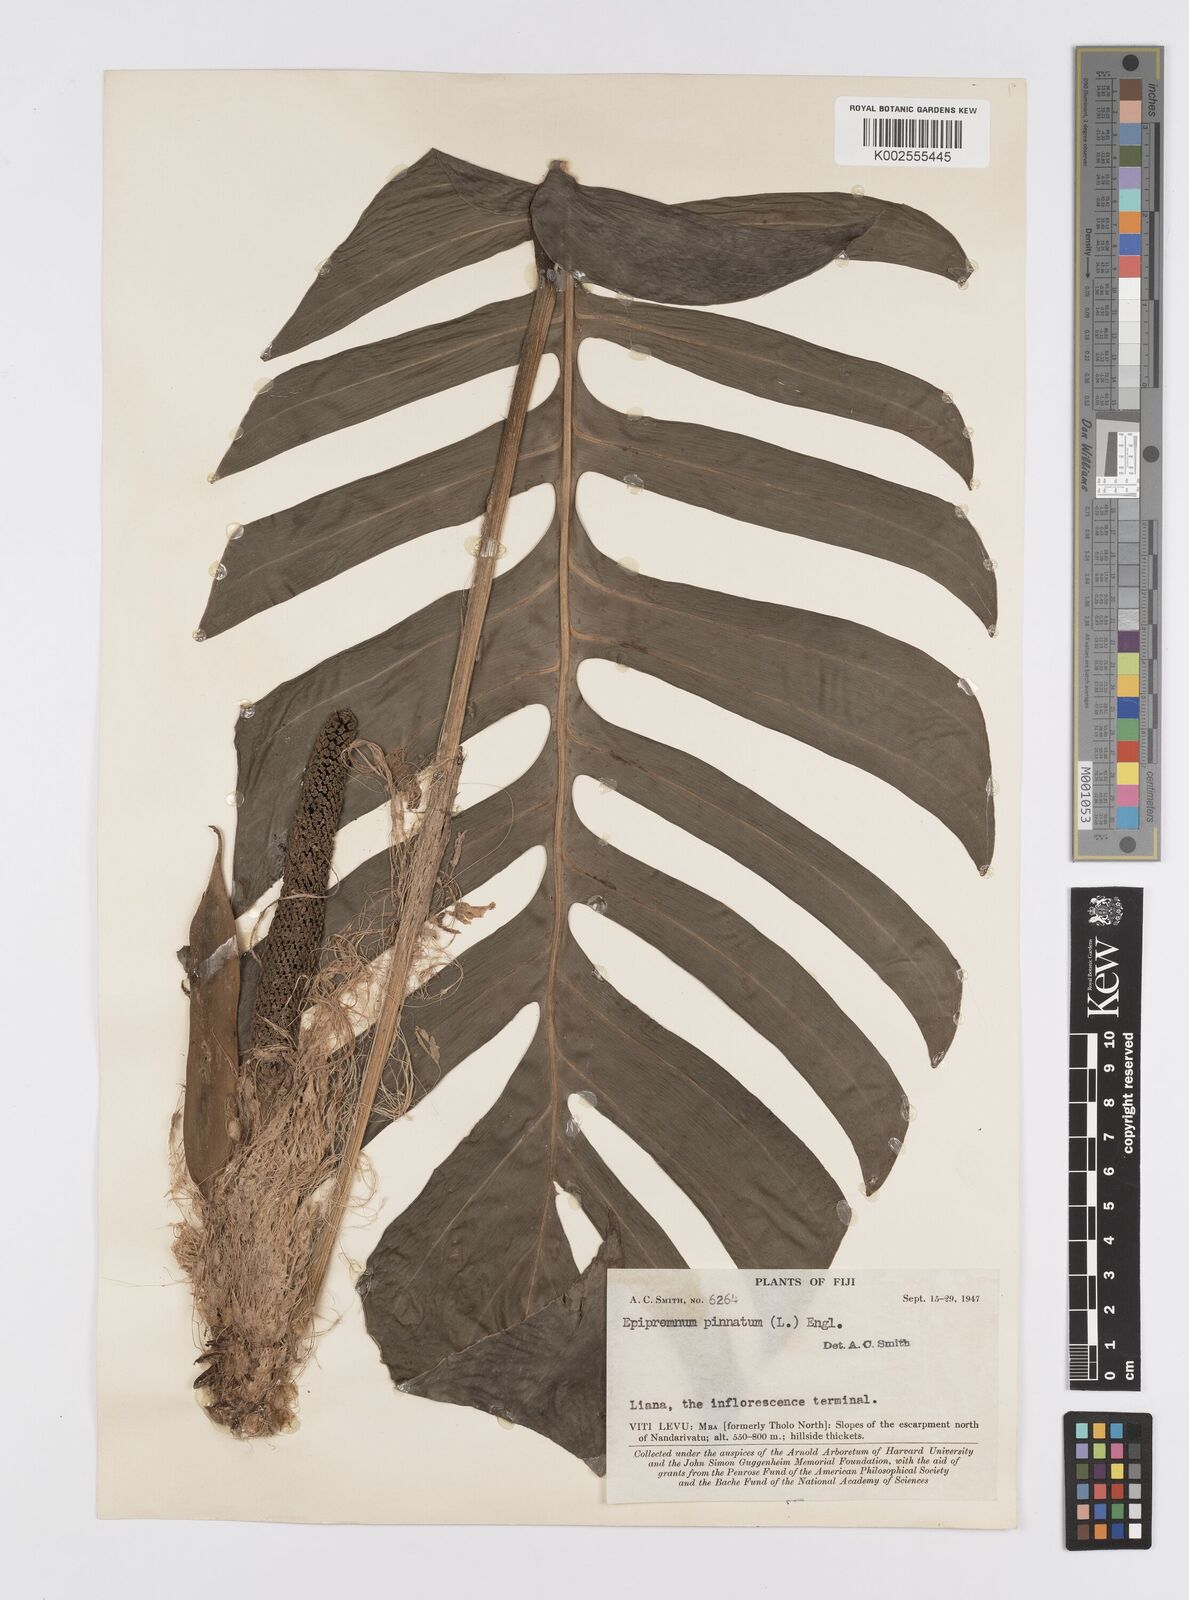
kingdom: Plantae
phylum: Tracheophyta
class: Liliopsida
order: Alismatales
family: Araceae
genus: Epipremnum
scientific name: Epipremnum pinnatum
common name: Centipede tongavine
